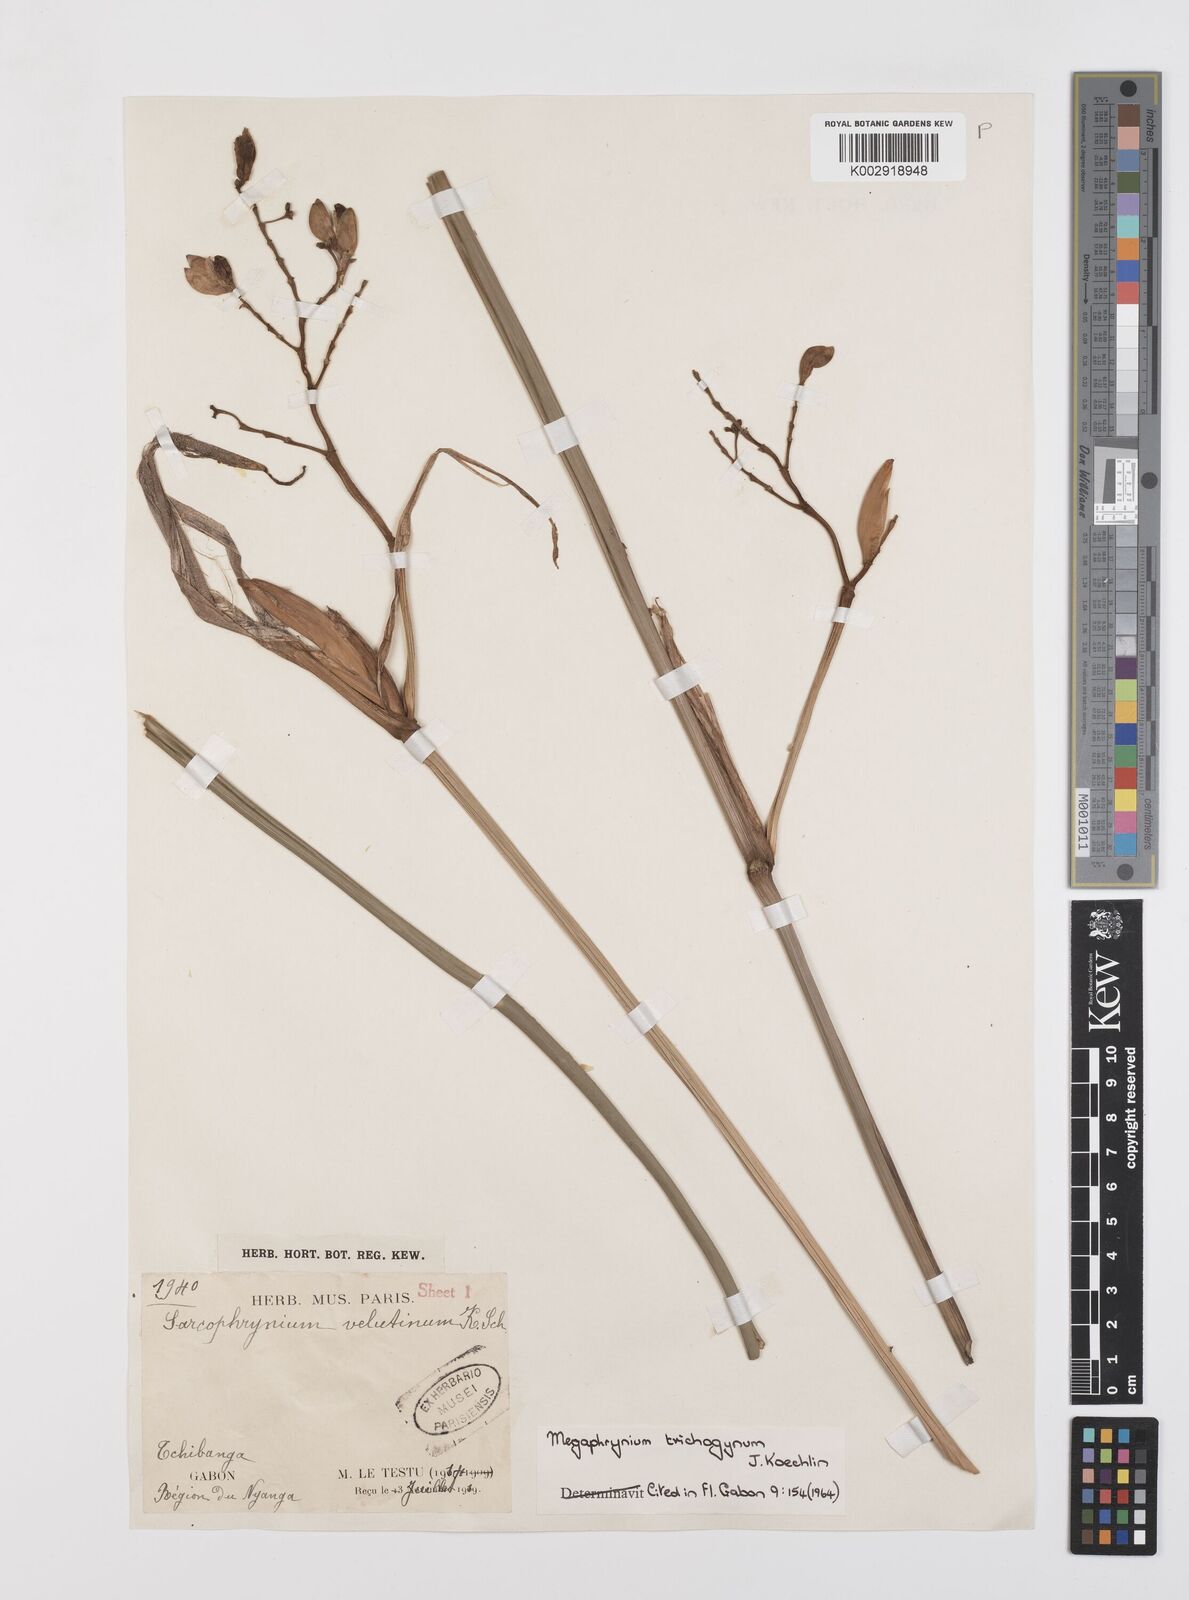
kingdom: Plantae
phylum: Tracheophyta
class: Liliopsida
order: Zingiberales
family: Marantaceae
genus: Megaphrynium
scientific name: Megaphrynium trichogynum
